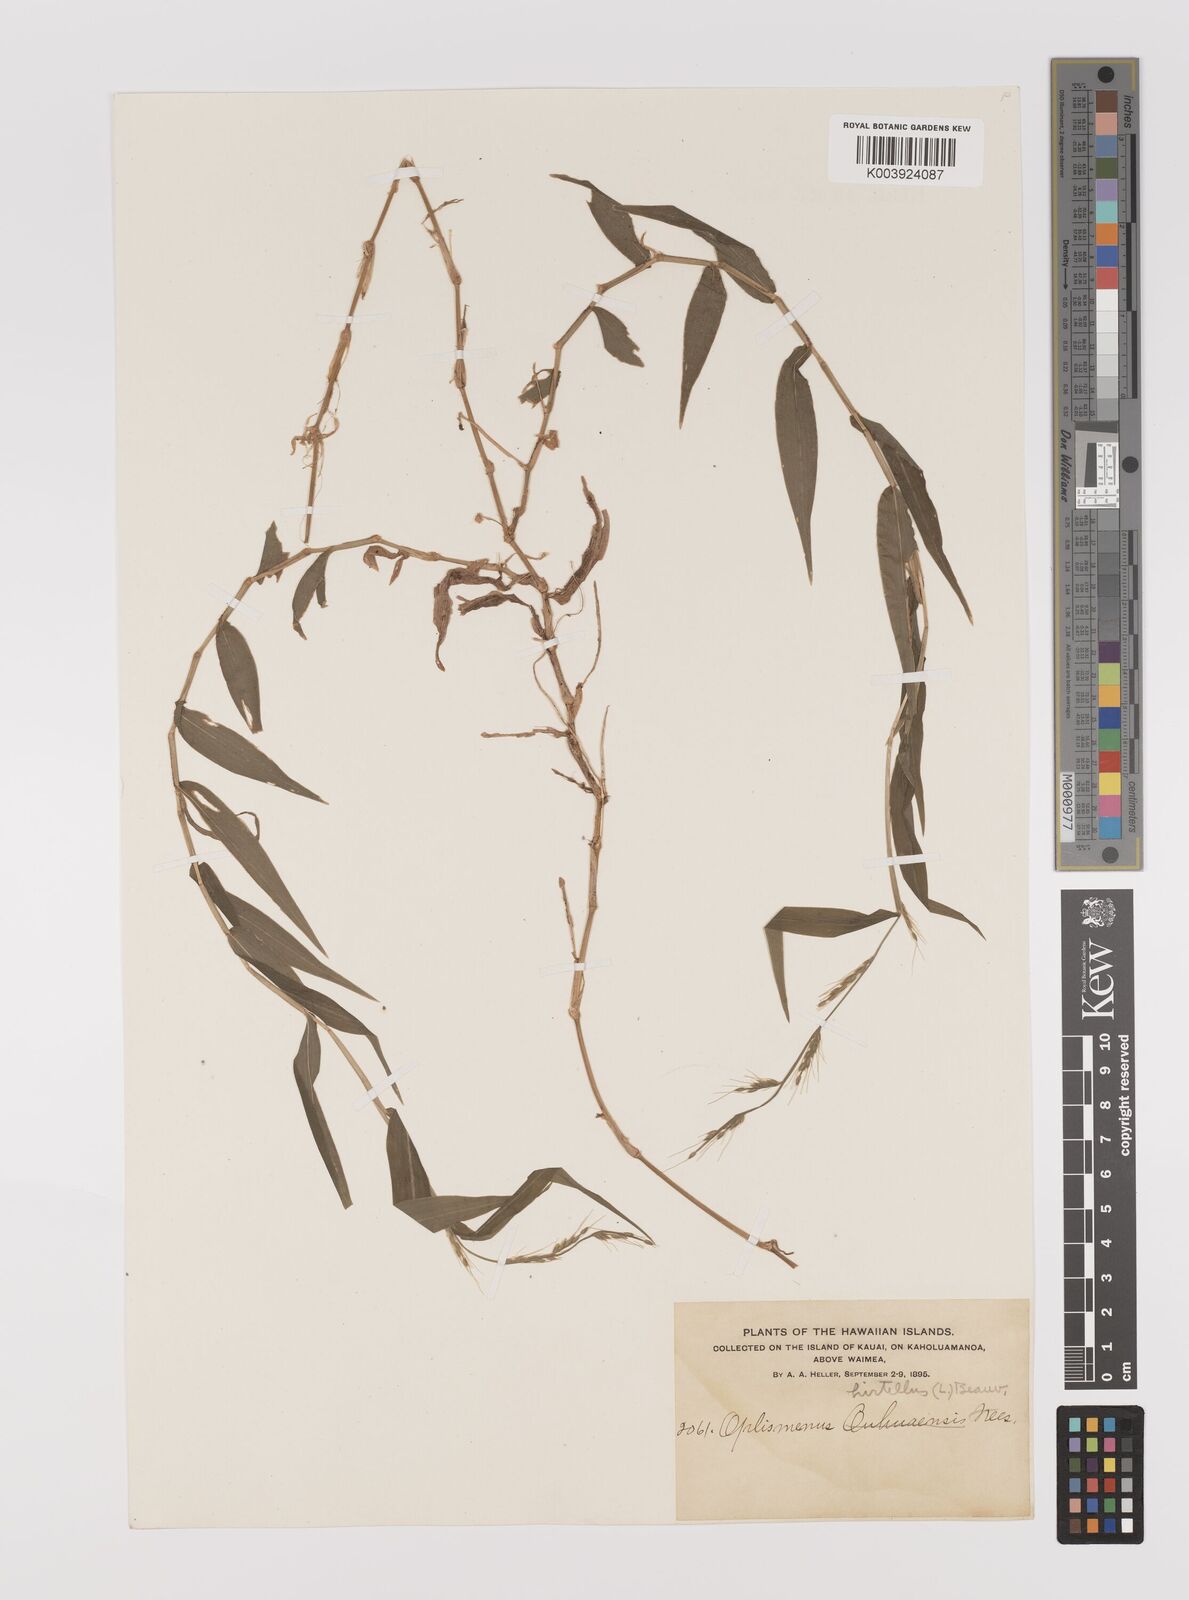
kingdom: Plantae
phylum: Tracheophyta
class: Liliopsida
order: Poales
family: Poaceae
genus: Oplismenus
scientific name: Oplismenus hirtellus
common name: Basketgrass
